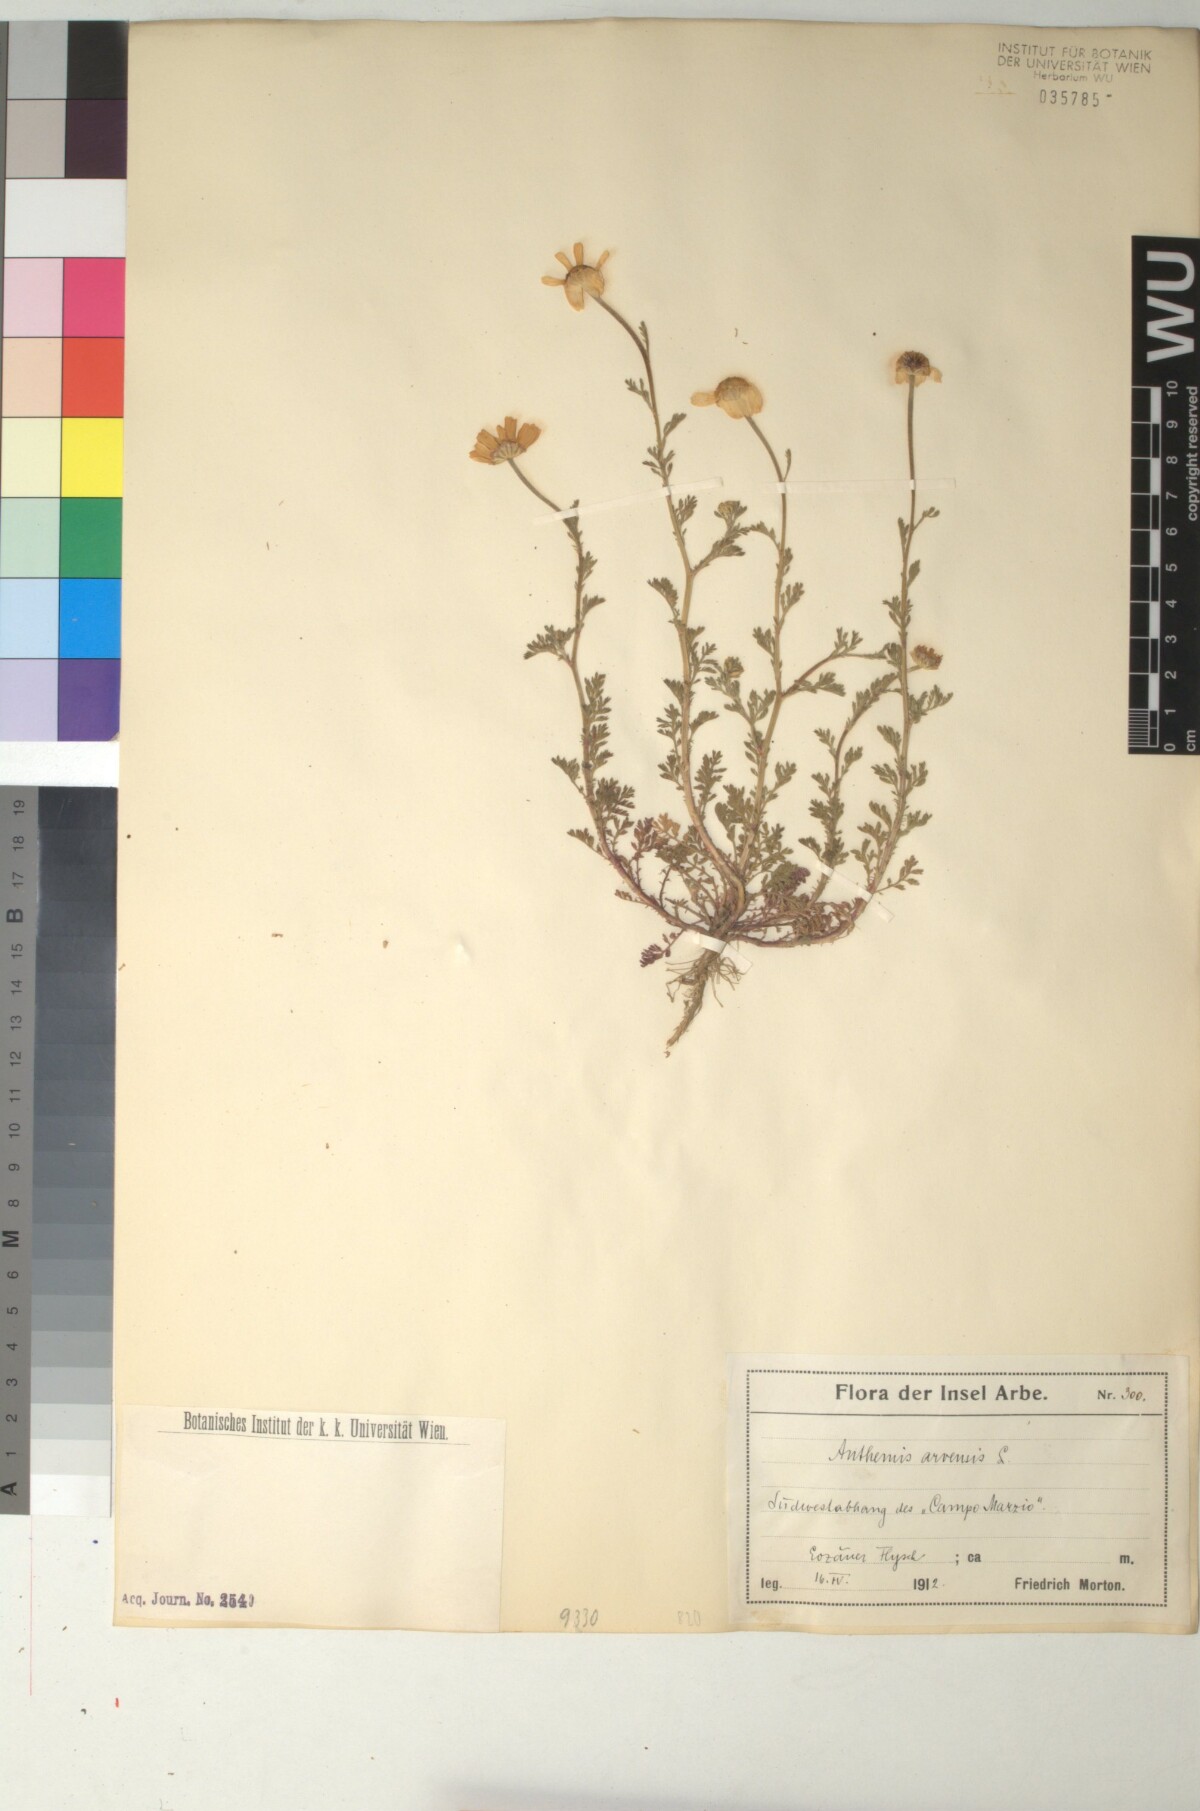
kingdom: Plantae
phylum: Tracheophyta
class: Magnoliopsida
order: Asterales
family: Asteraceae
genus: Anthemis
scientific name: Anthemis arvensis
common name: Corn chamomile
